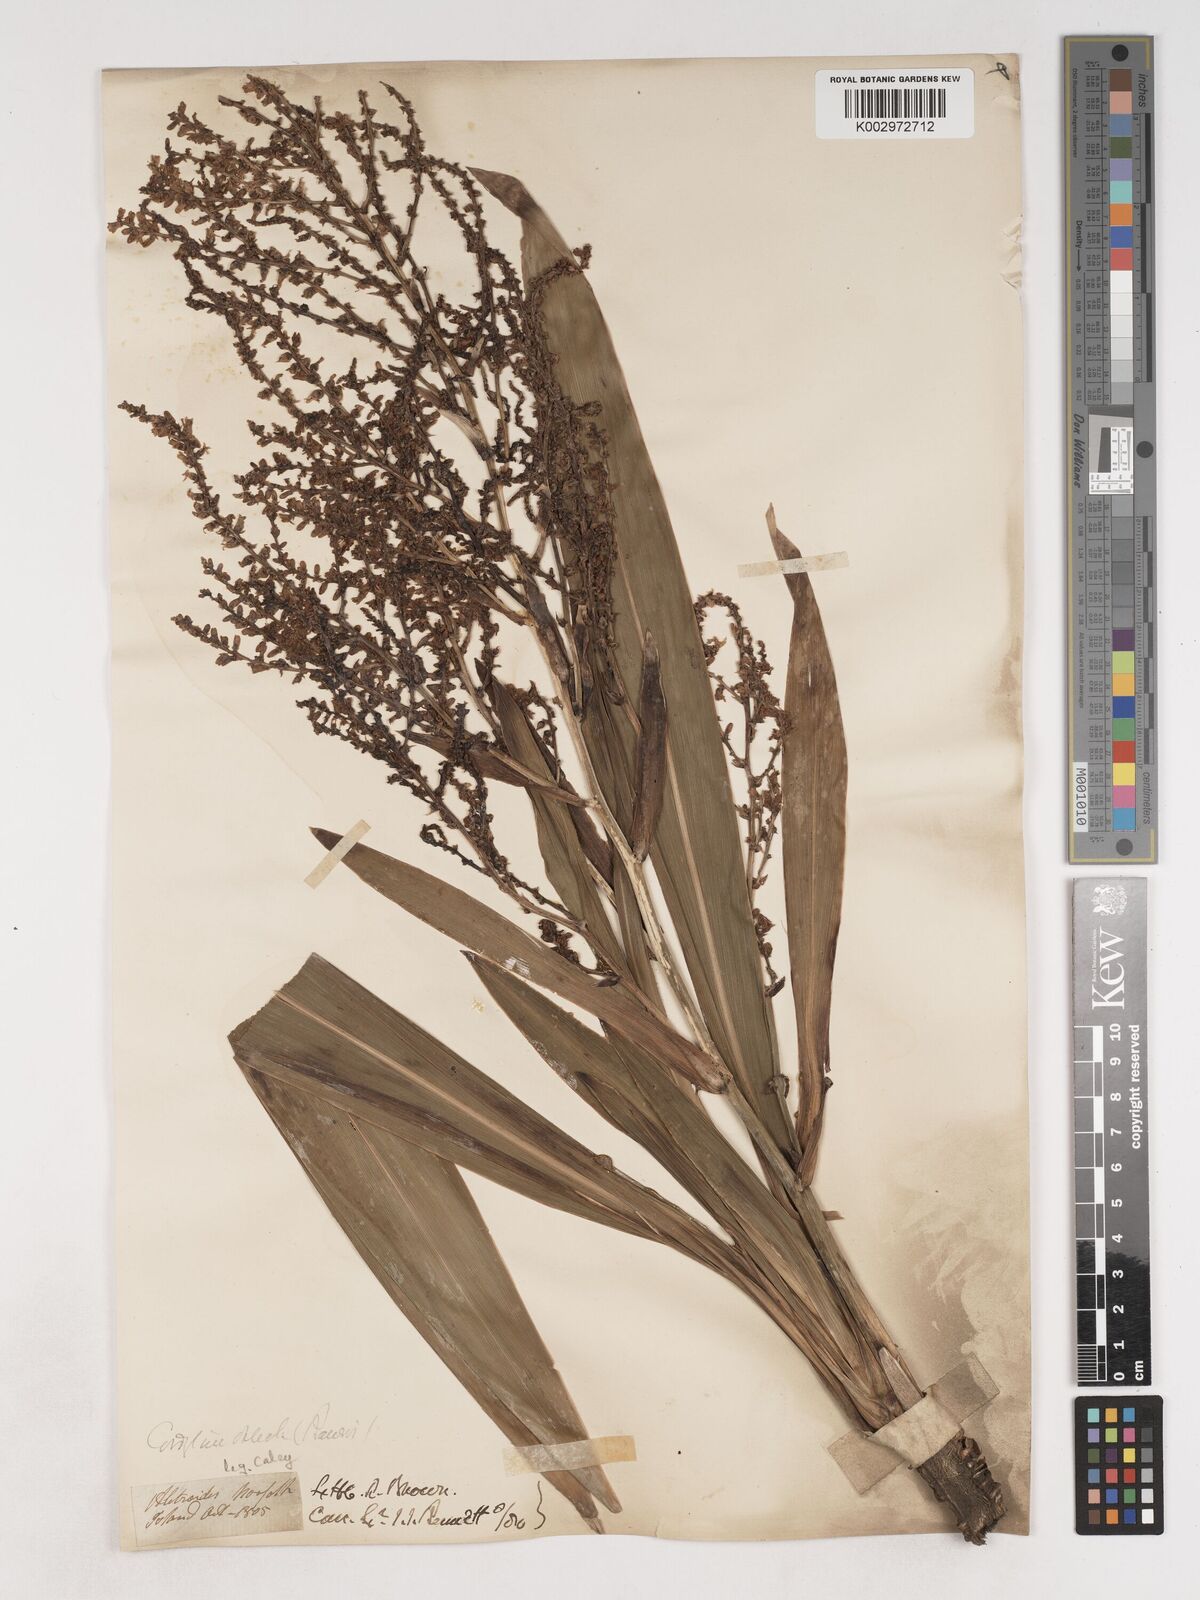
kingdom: Plantae
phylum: Tracheophyta
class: Liliopsida
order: Asparagales
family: Asparagaceae
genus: Cordyline
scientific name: Cordyline obtecta
